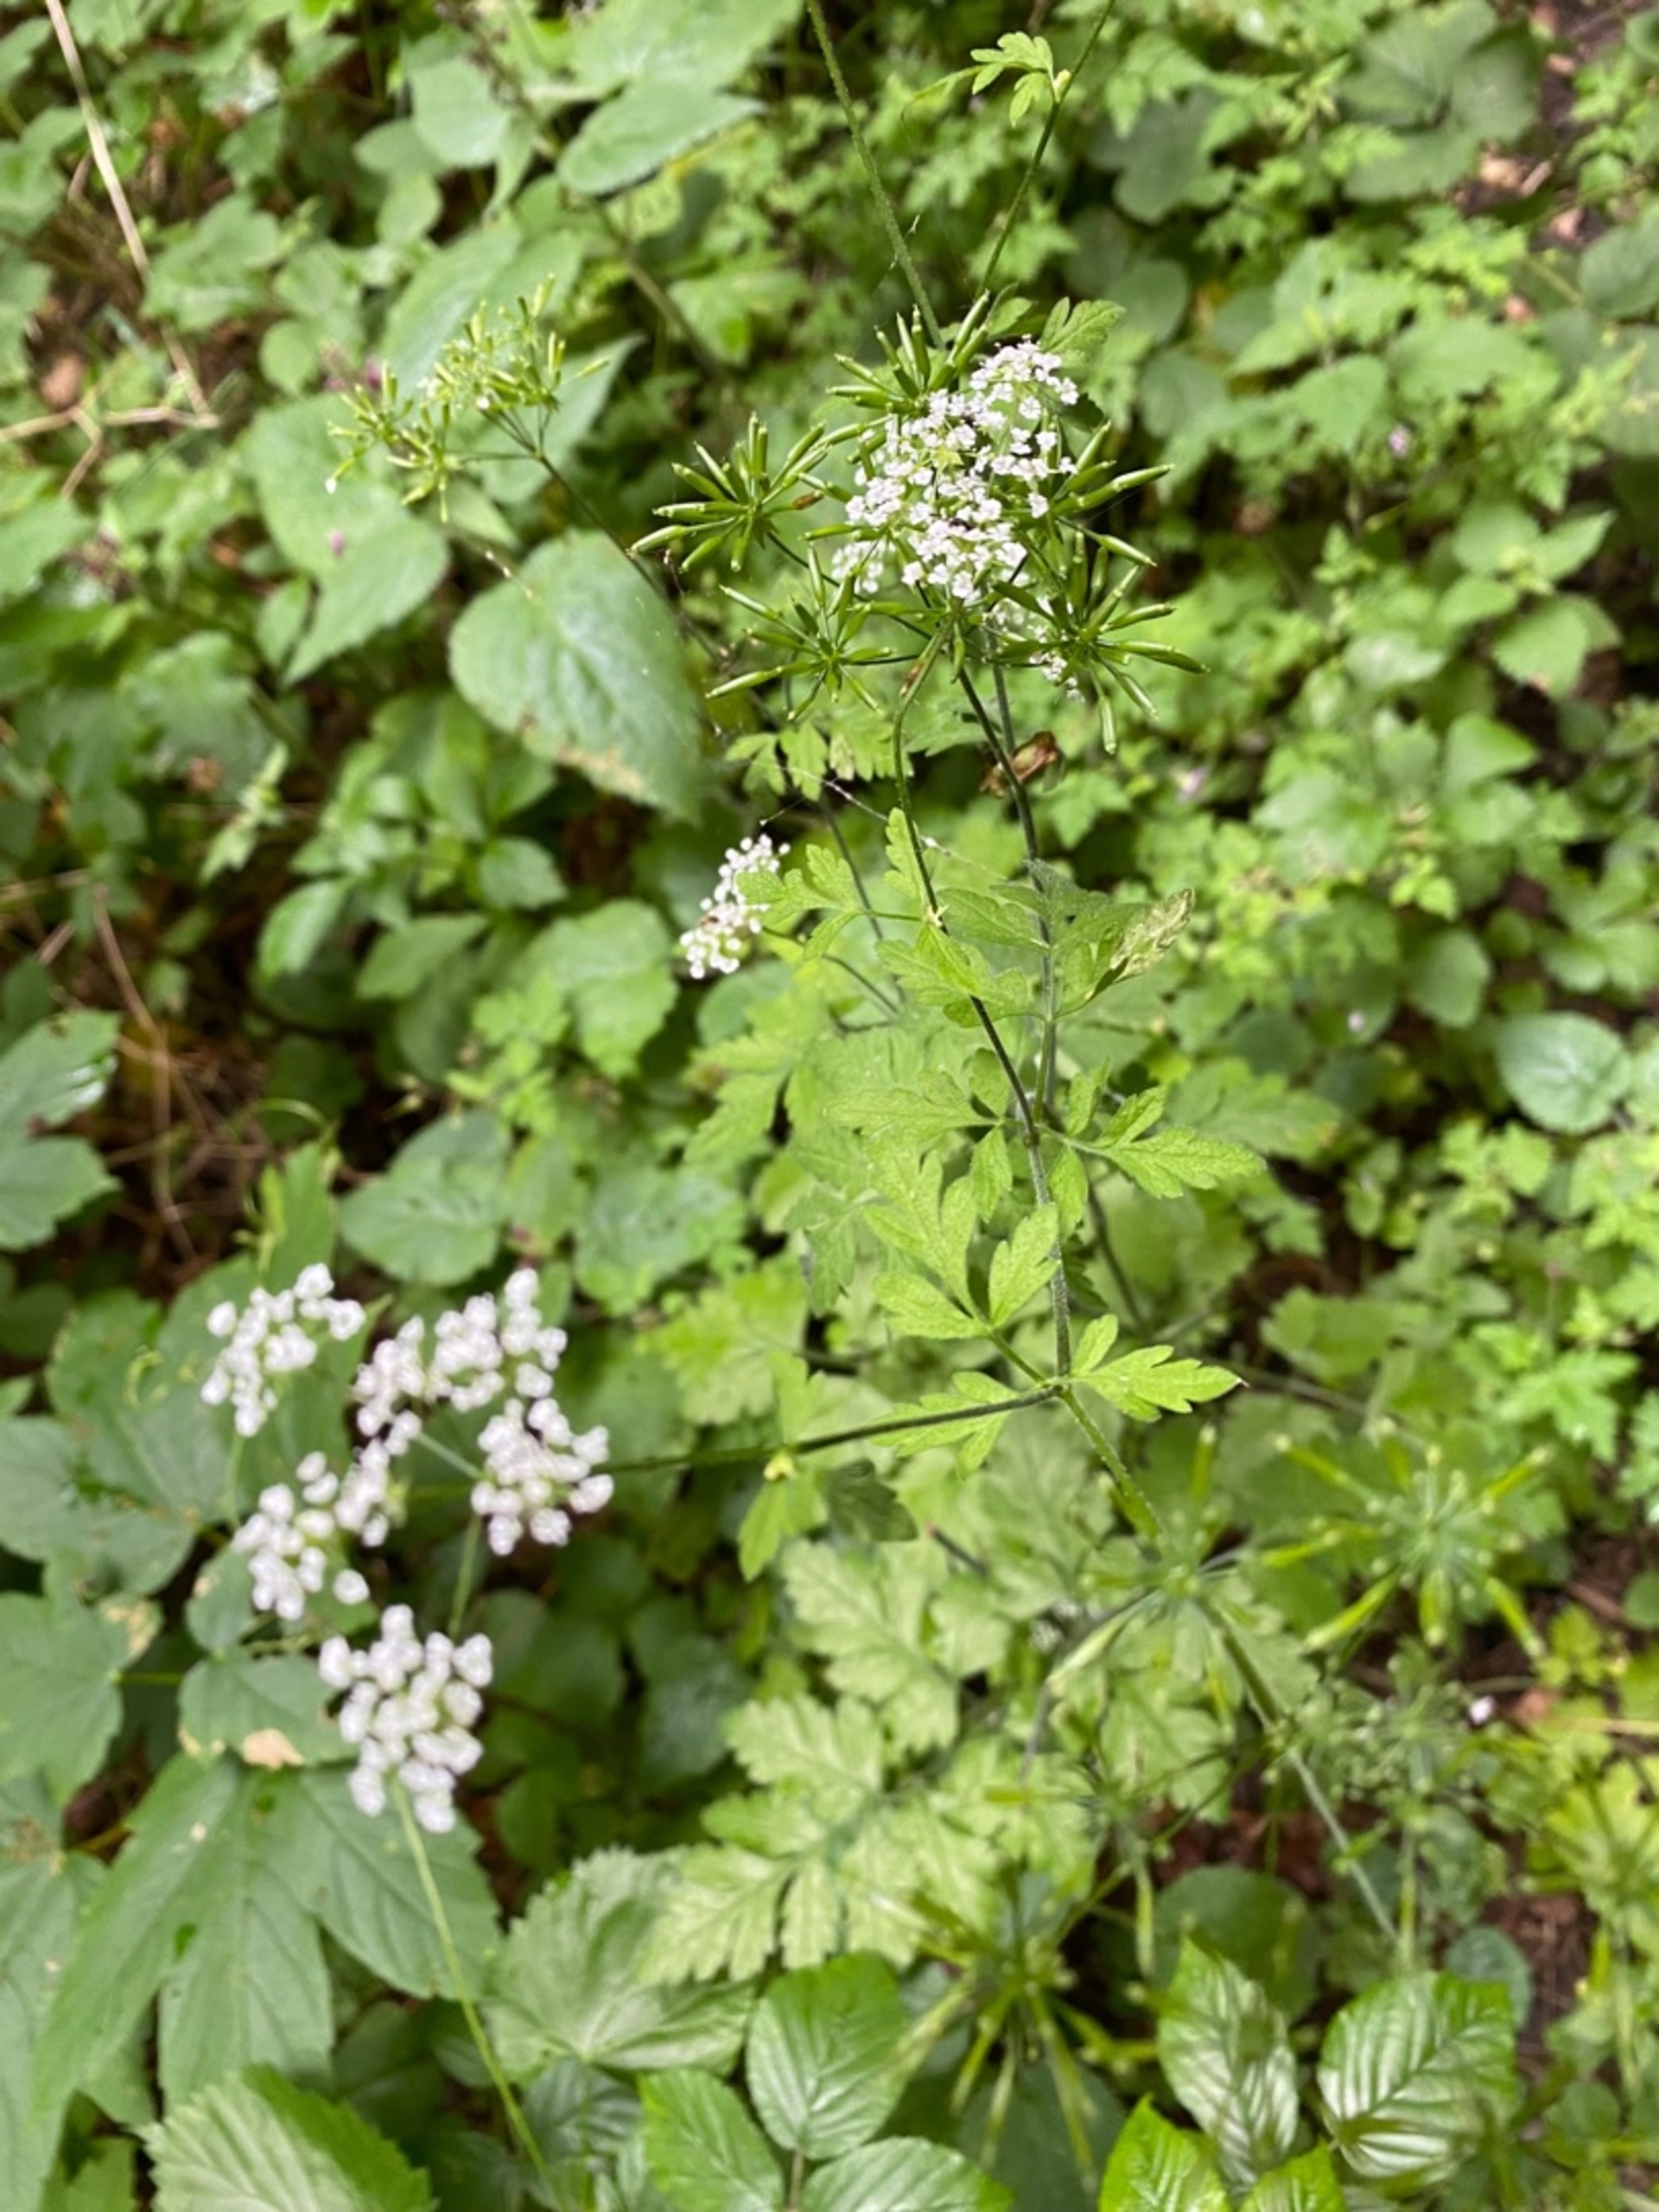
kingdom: Plantae
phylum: Tracheophyta
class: Magnoliopsida
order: Apiales
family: Apiaceae
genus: Chaerophyllum
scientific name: Chaerophyllum temulum
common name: Almindelig hulsvøb
